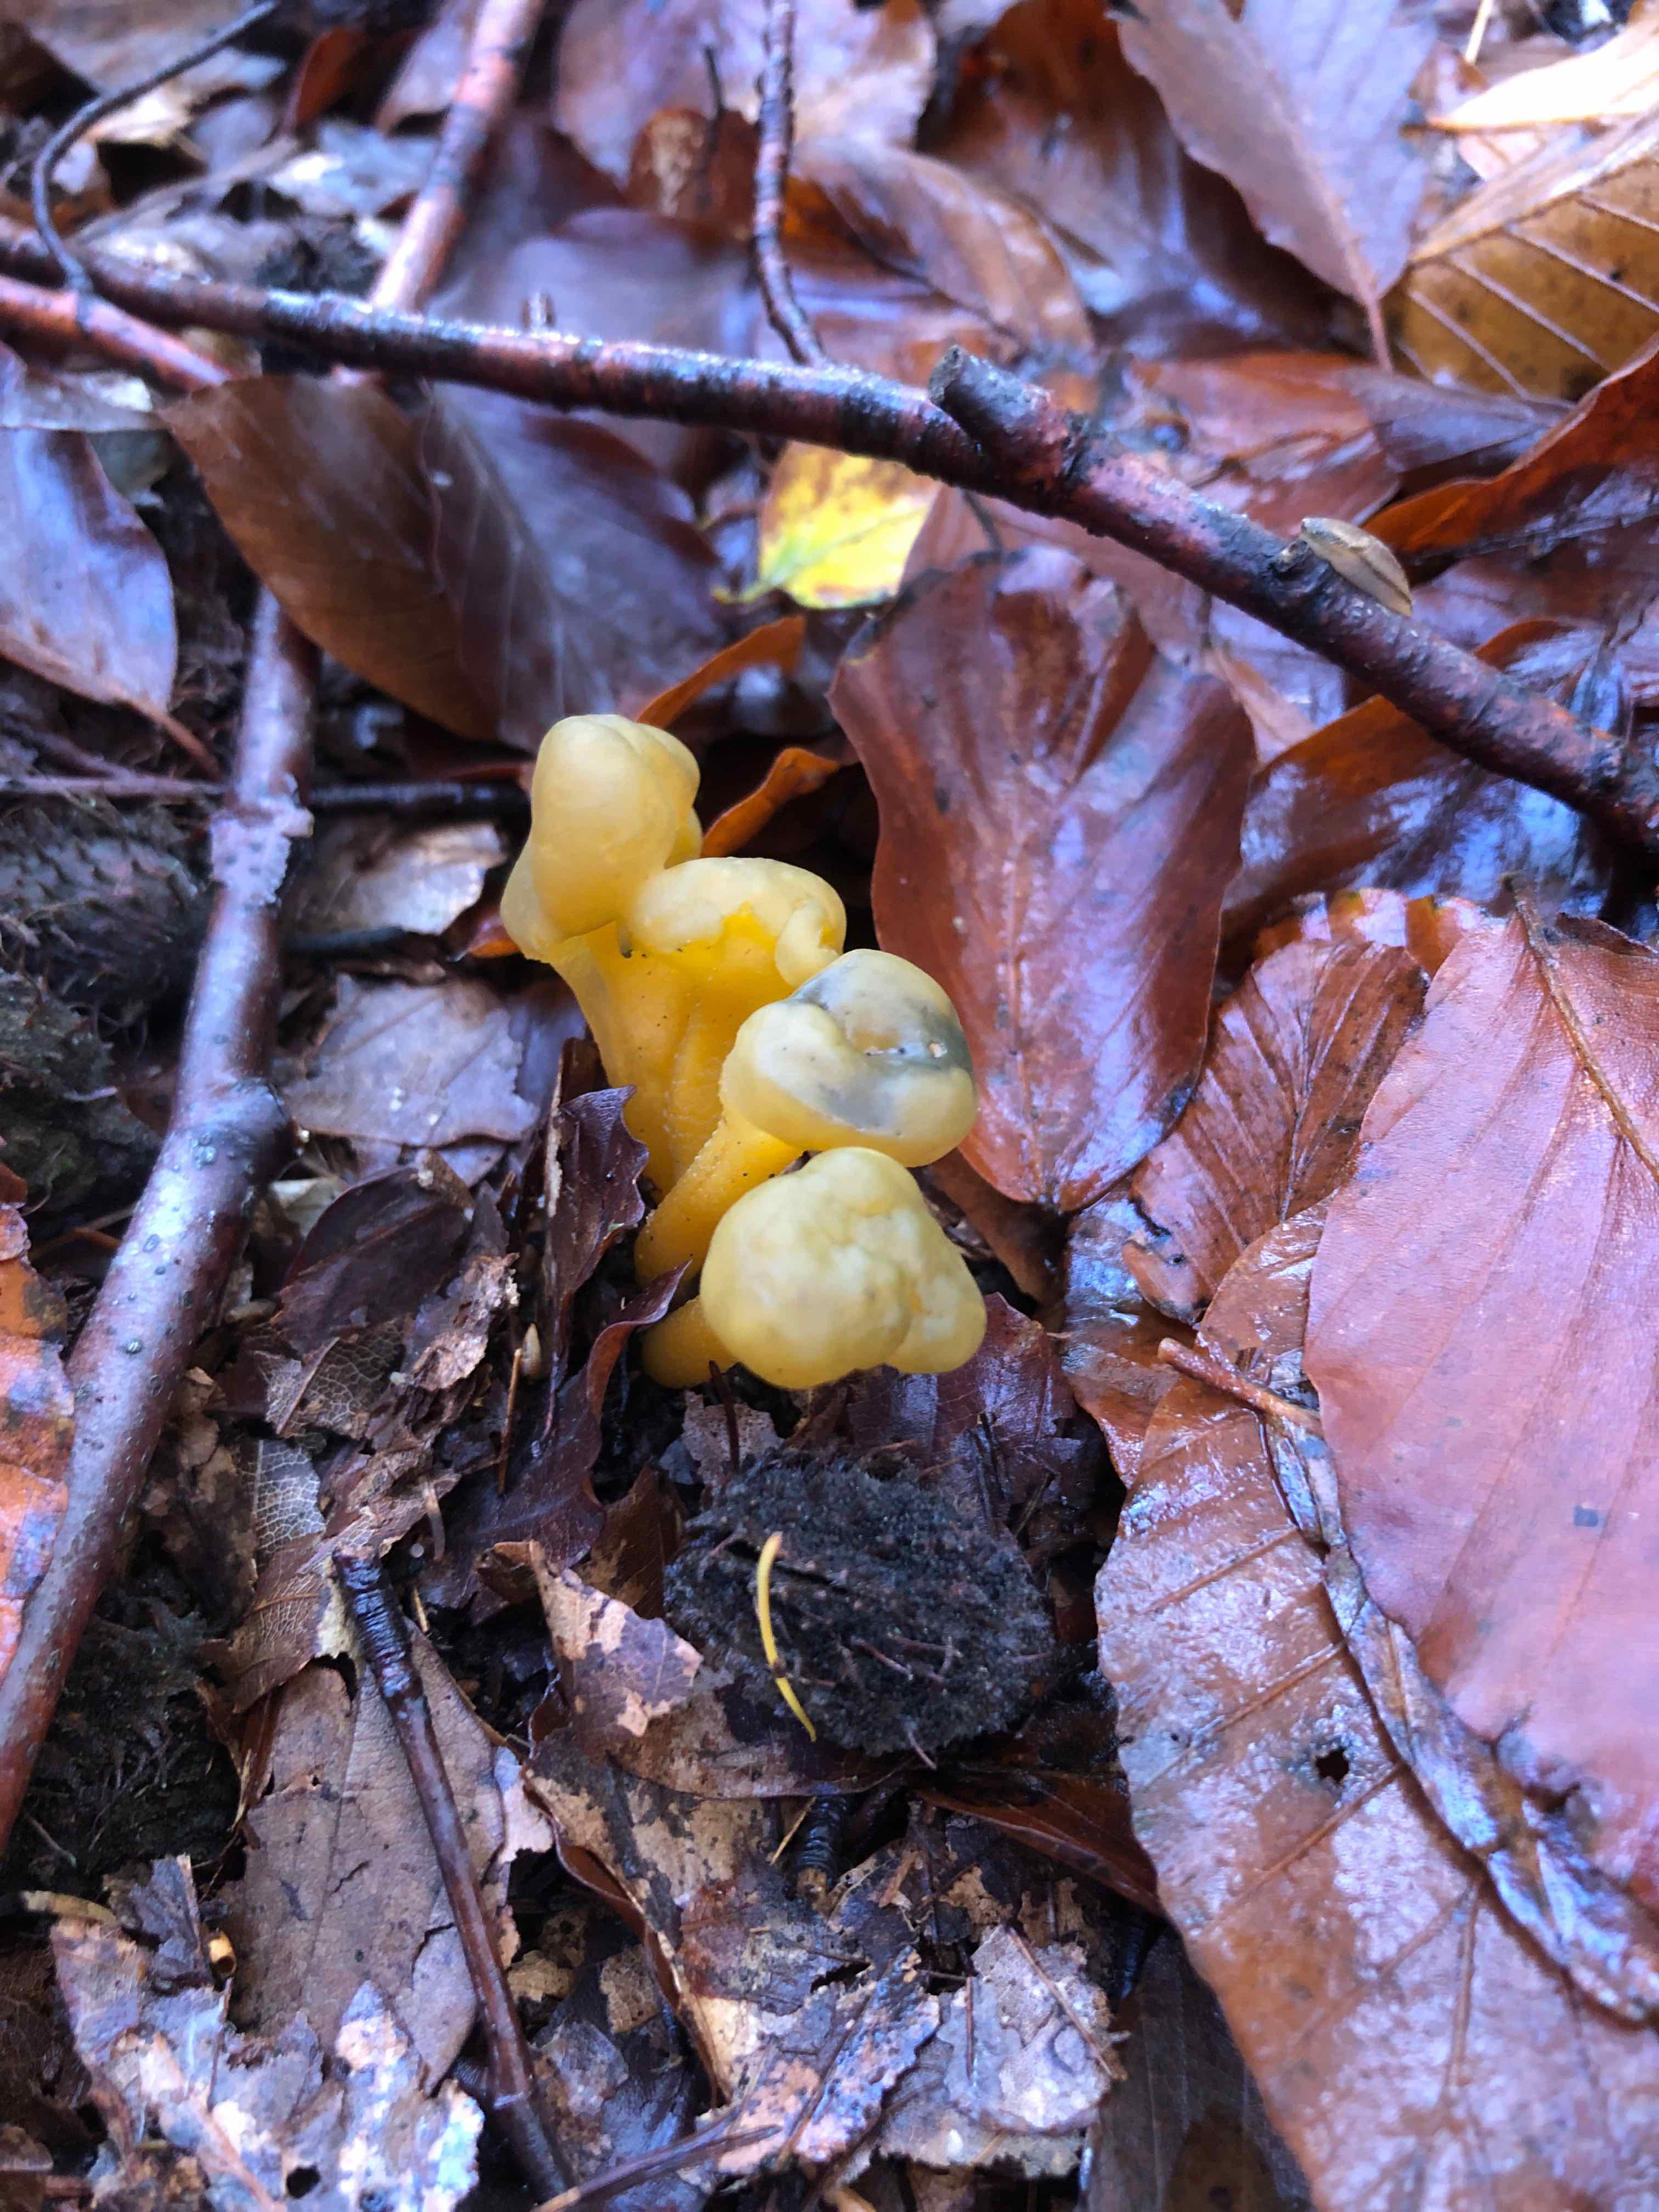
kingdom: Fungi
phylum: Ascomycota
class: Leotiomycetes
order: Leotiales
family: Leotiaceae
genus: Leotia
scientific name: Leotia lubrica
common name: ravsvamp
